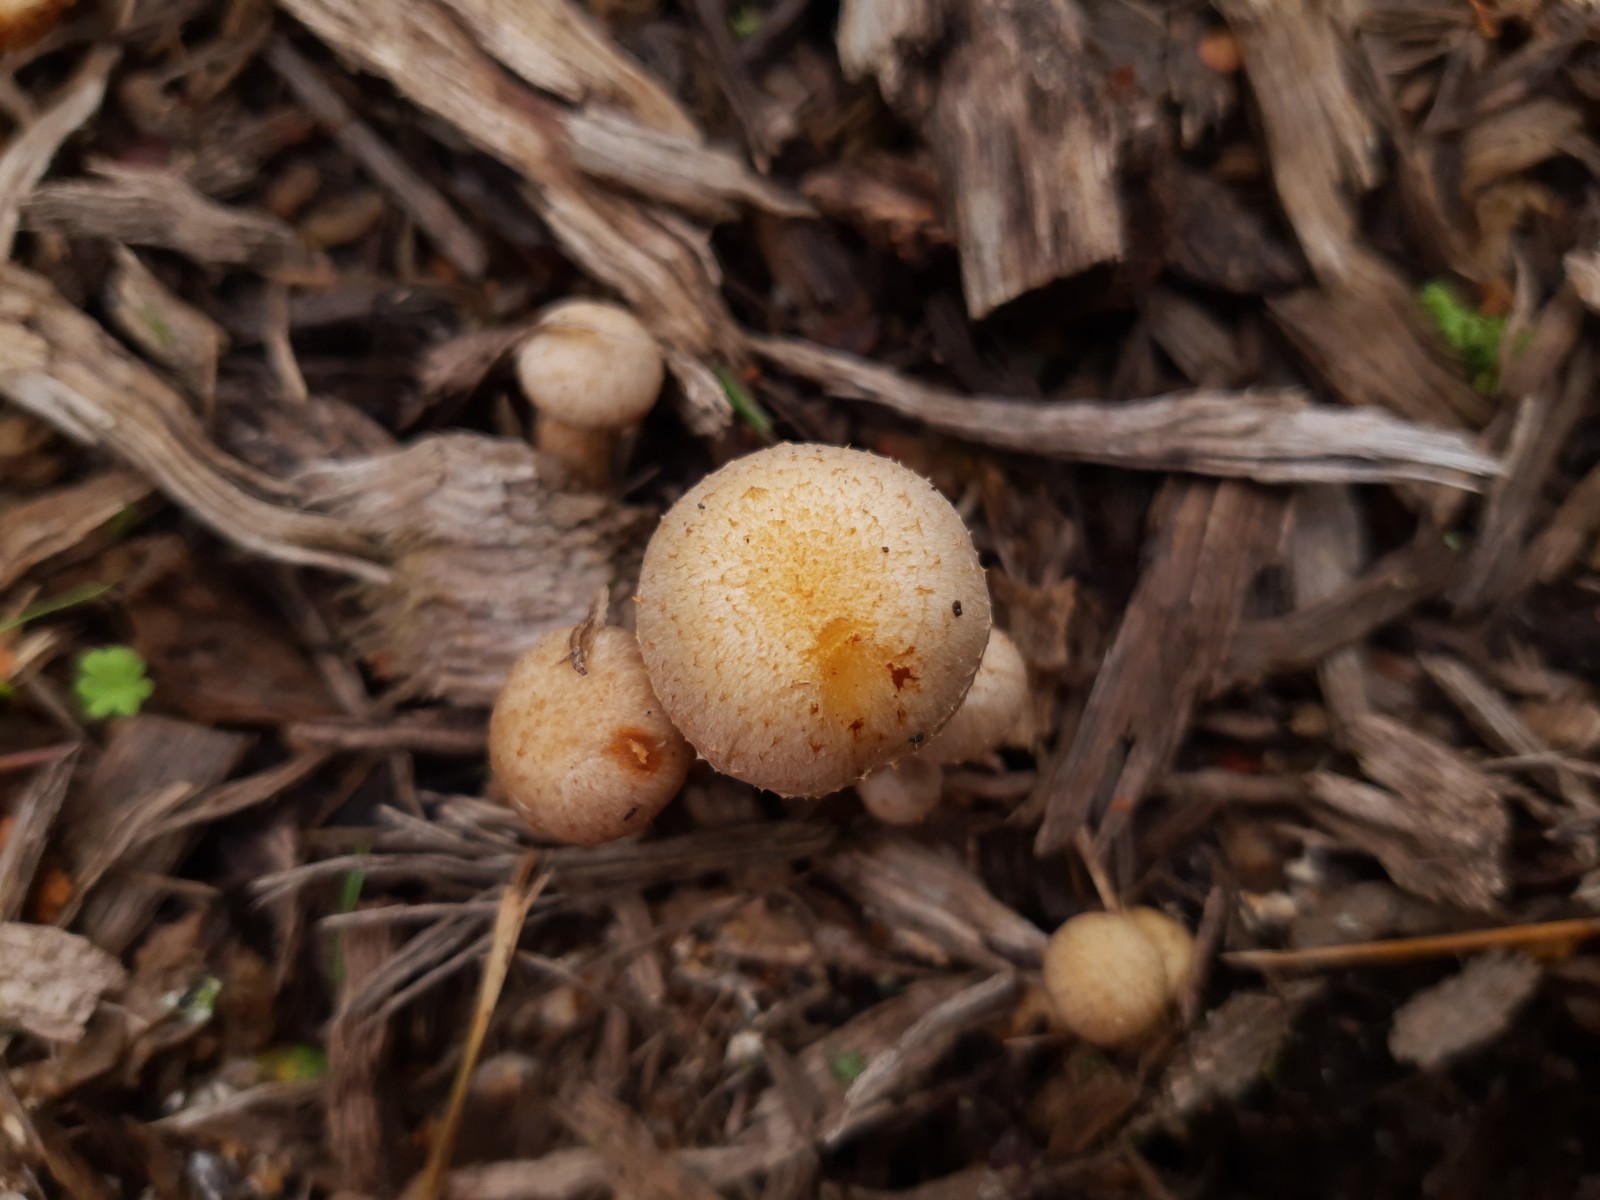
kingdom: Fungi
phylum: Basidiomycota
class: Agaricomycetes
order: Agaricales
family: Strophariaceae
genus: Pholiota
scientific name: Pholiota gummosa
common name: grøngul skælhat
